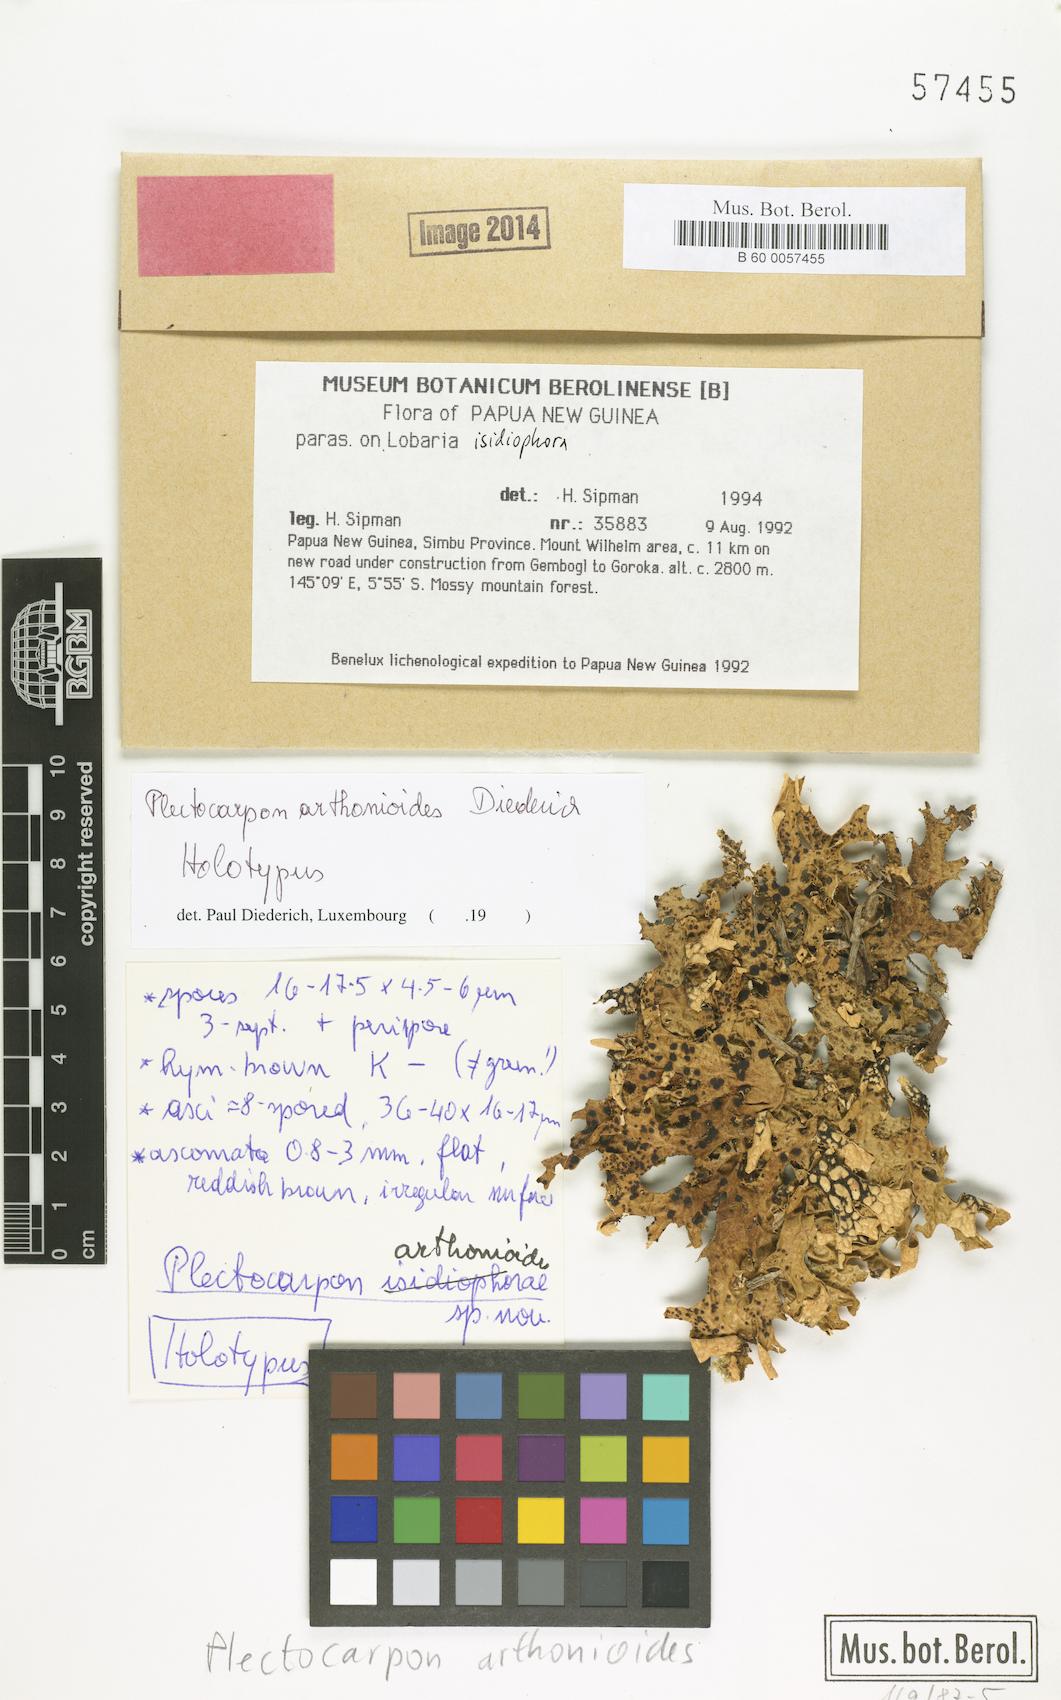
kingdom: Fungi
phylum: Ascomycota
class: Arthoniomycetes
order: Arthoniales
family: Roccellaceae
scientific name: Roccellaceae
